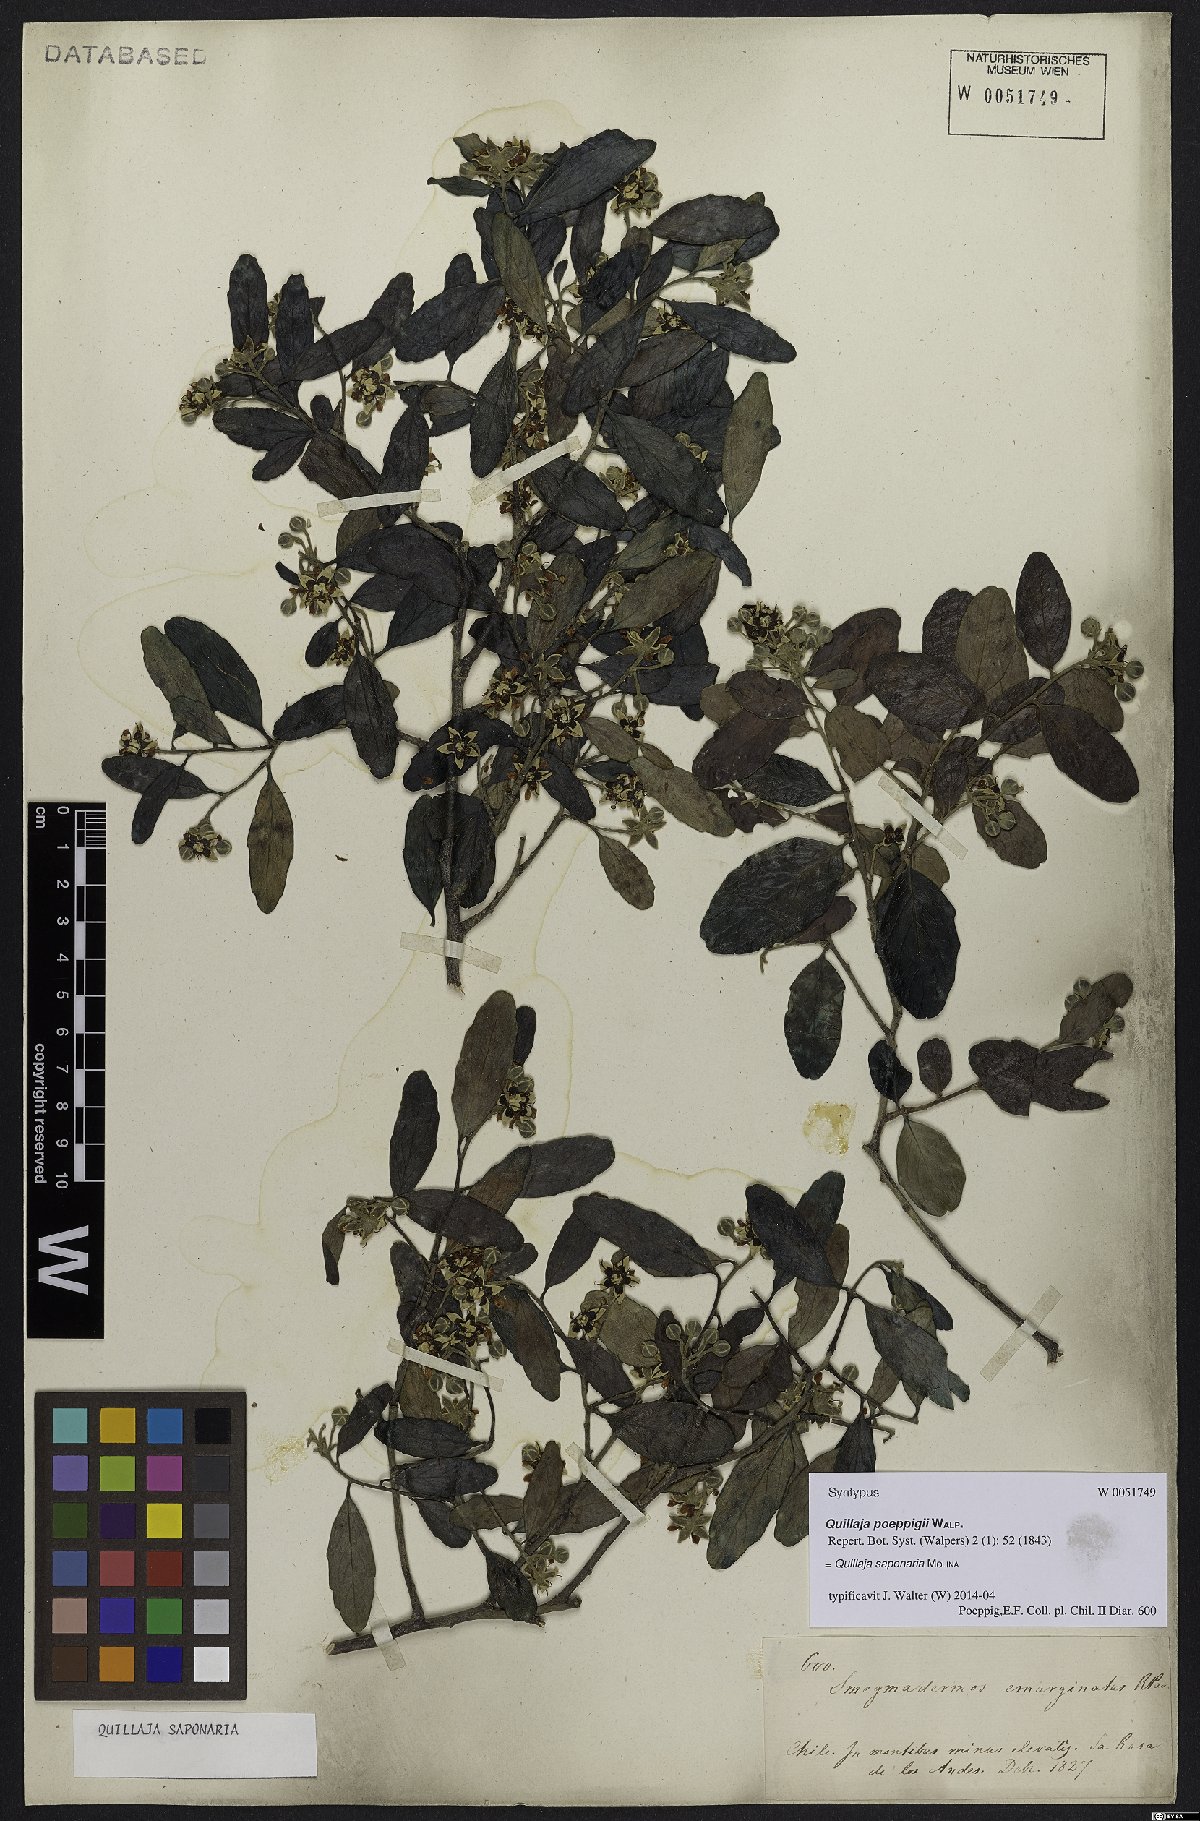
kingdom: Plantae
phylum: Tracheophyta
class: Magnoliopsida
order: Fabales
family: Quillajaceae
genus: Quillaja
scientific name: Quillaja saponaria
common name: Murillo's-bark
